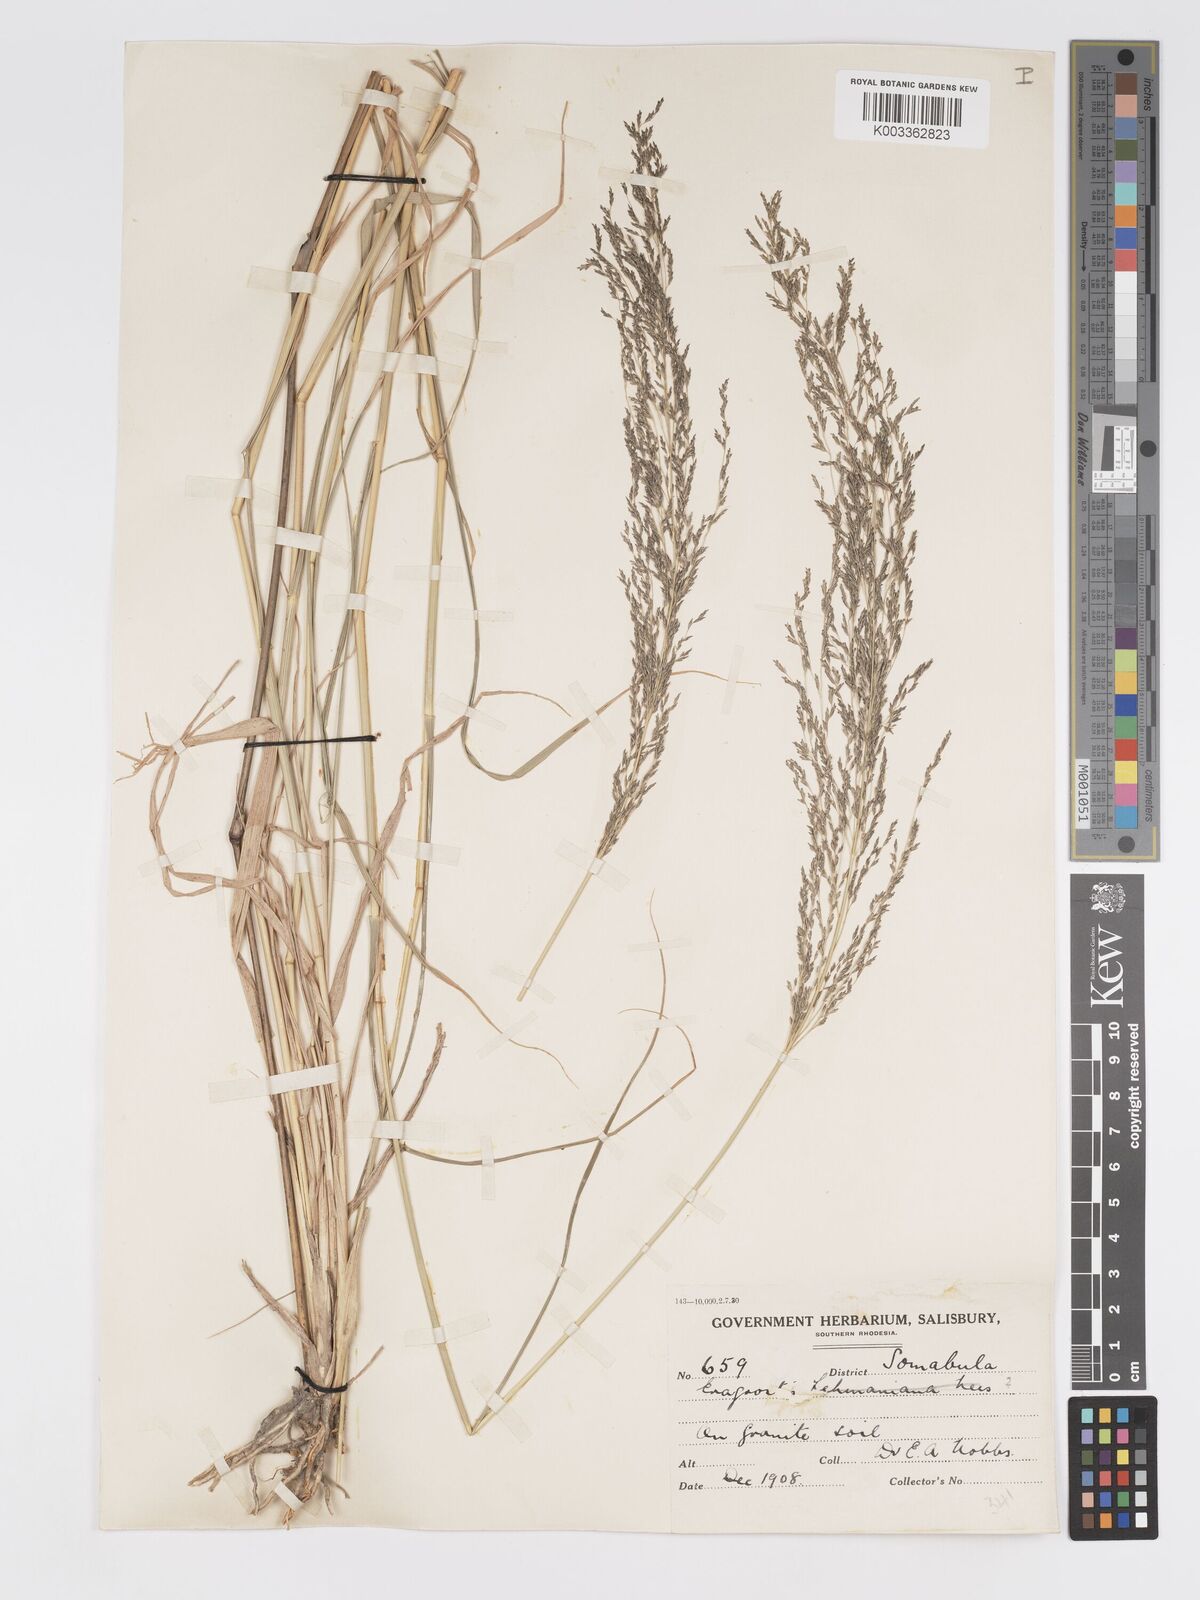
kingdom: Plantae
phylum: Tracheophyta
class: Liliopsida
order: Poales
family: Poaceae
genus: Eragrostis
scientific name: Eragrostis cylindriflora
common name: Cylinderflower lovegrass
